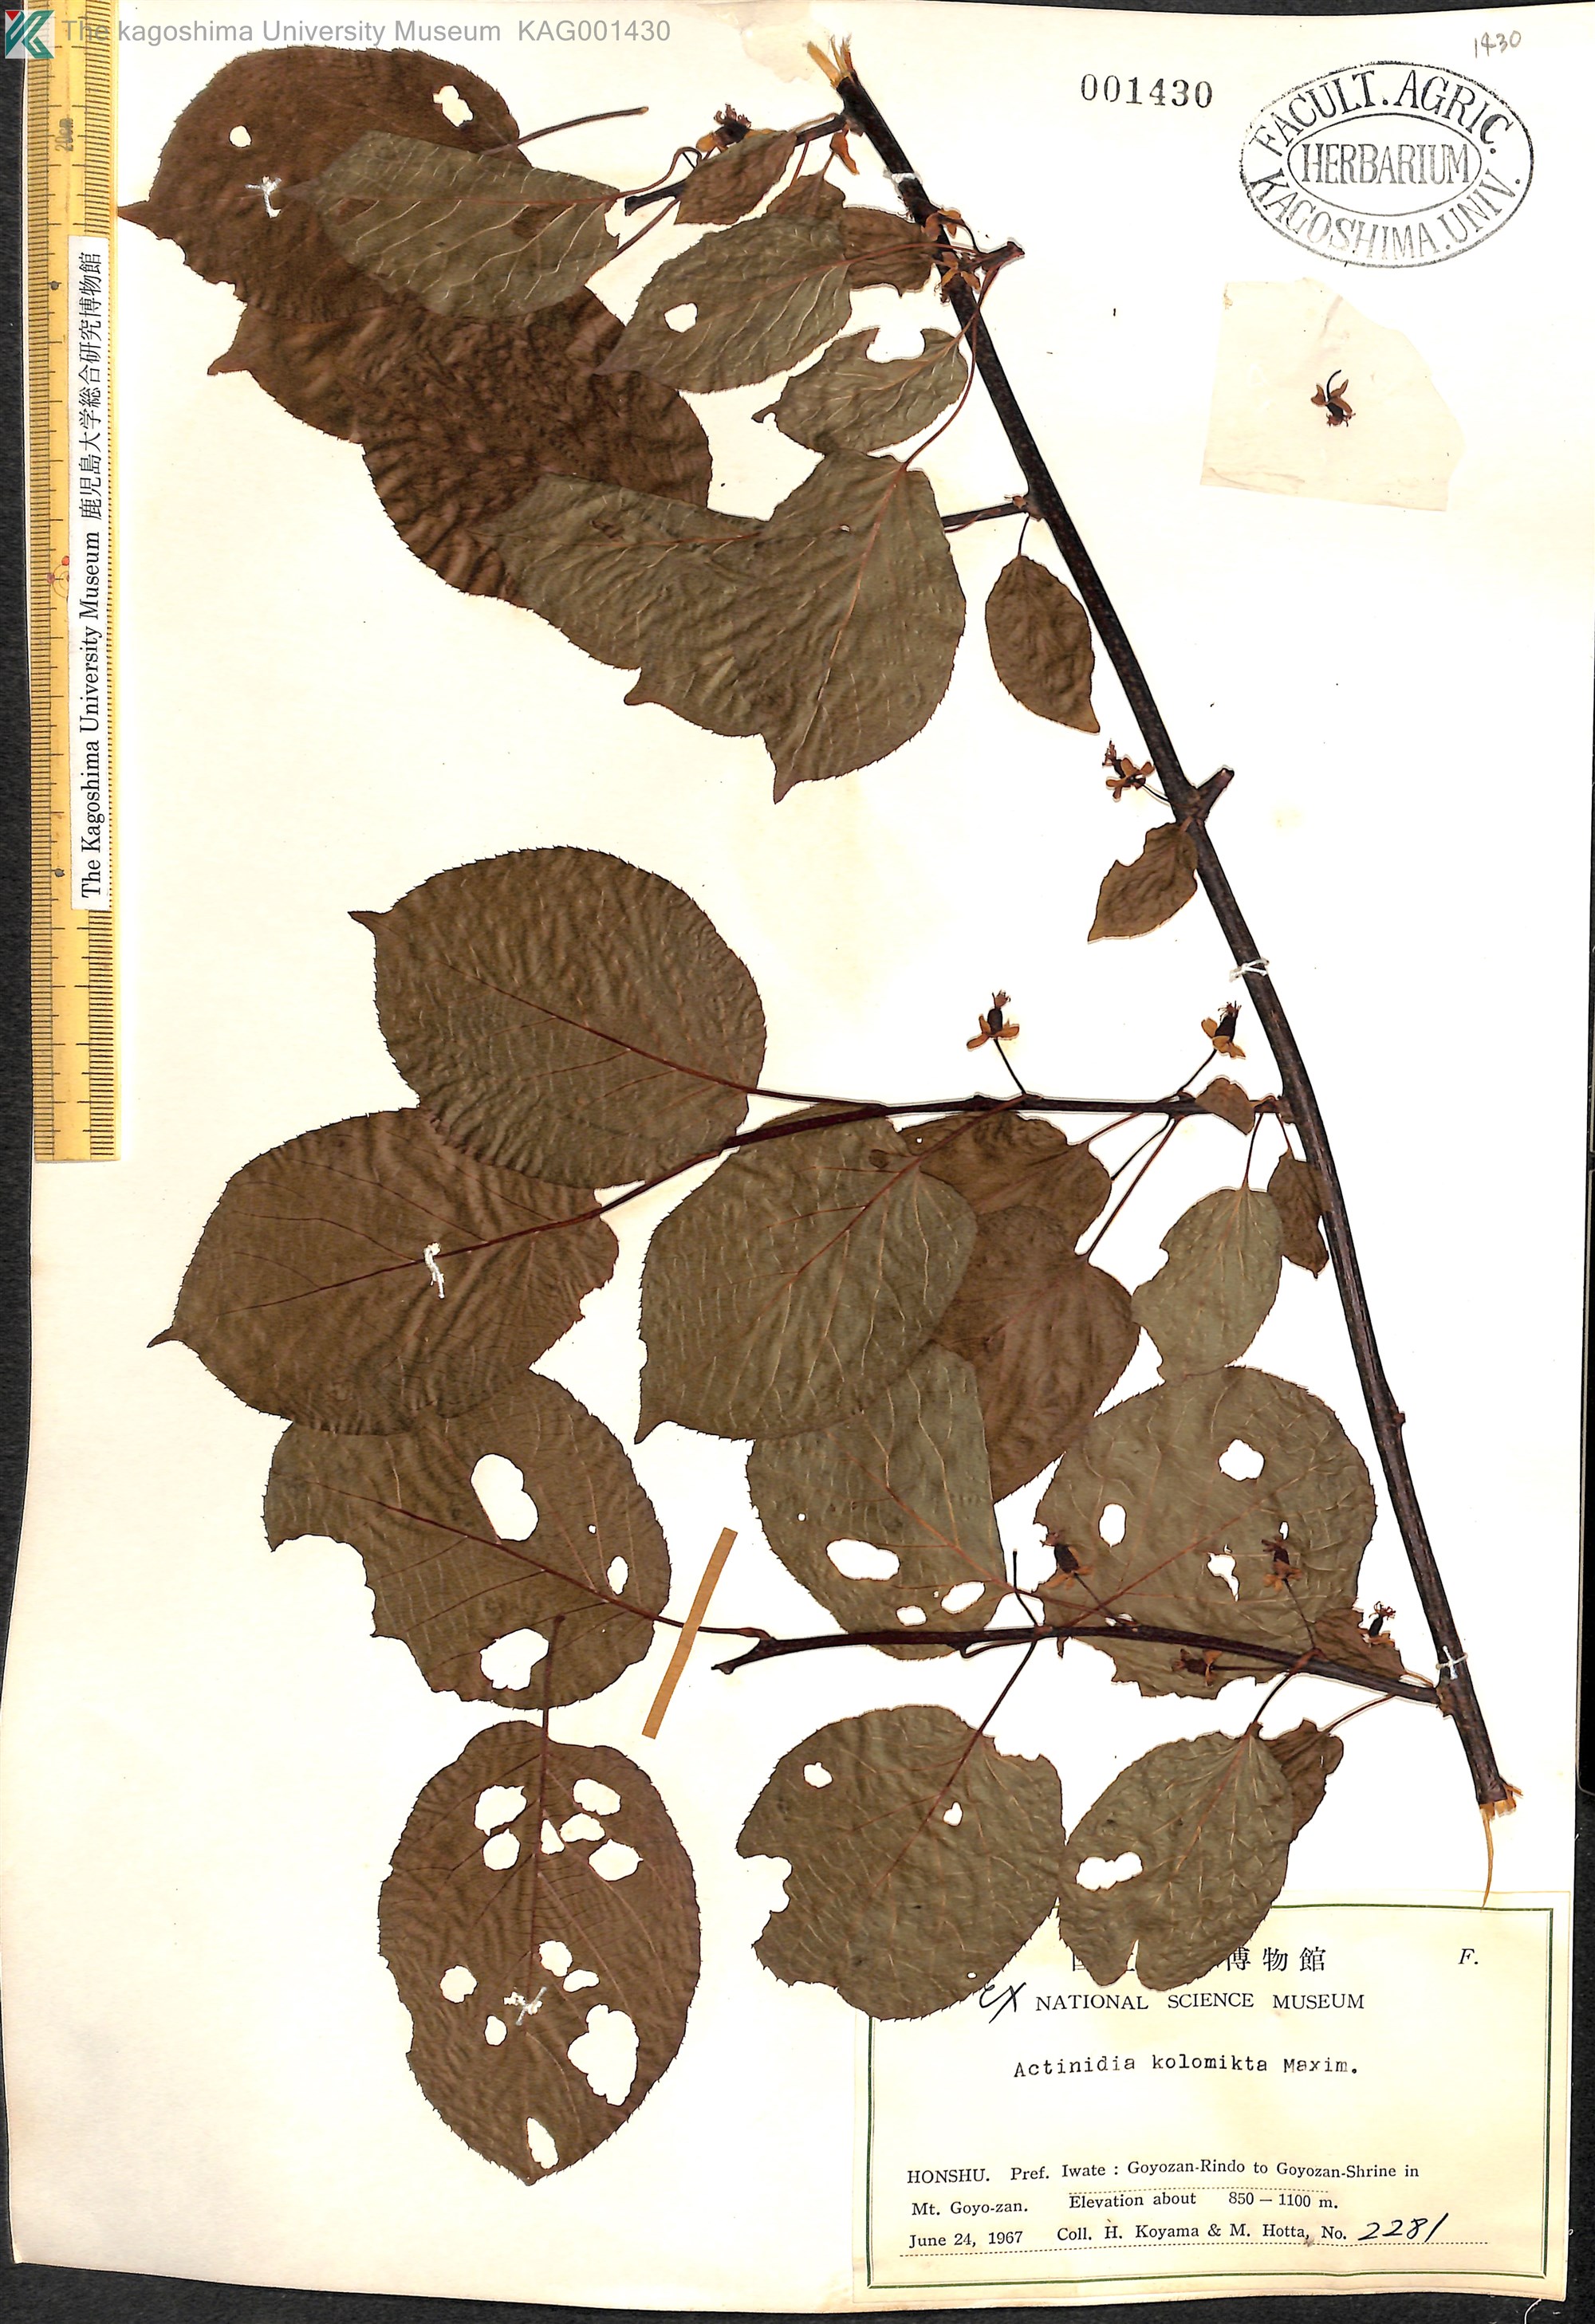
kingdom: Plantae
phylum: Tracheophyta
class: Magnoliopsida
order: Ericales
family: Actinidiaceae
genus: Actinidia
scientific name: Actinidia kolomikta
